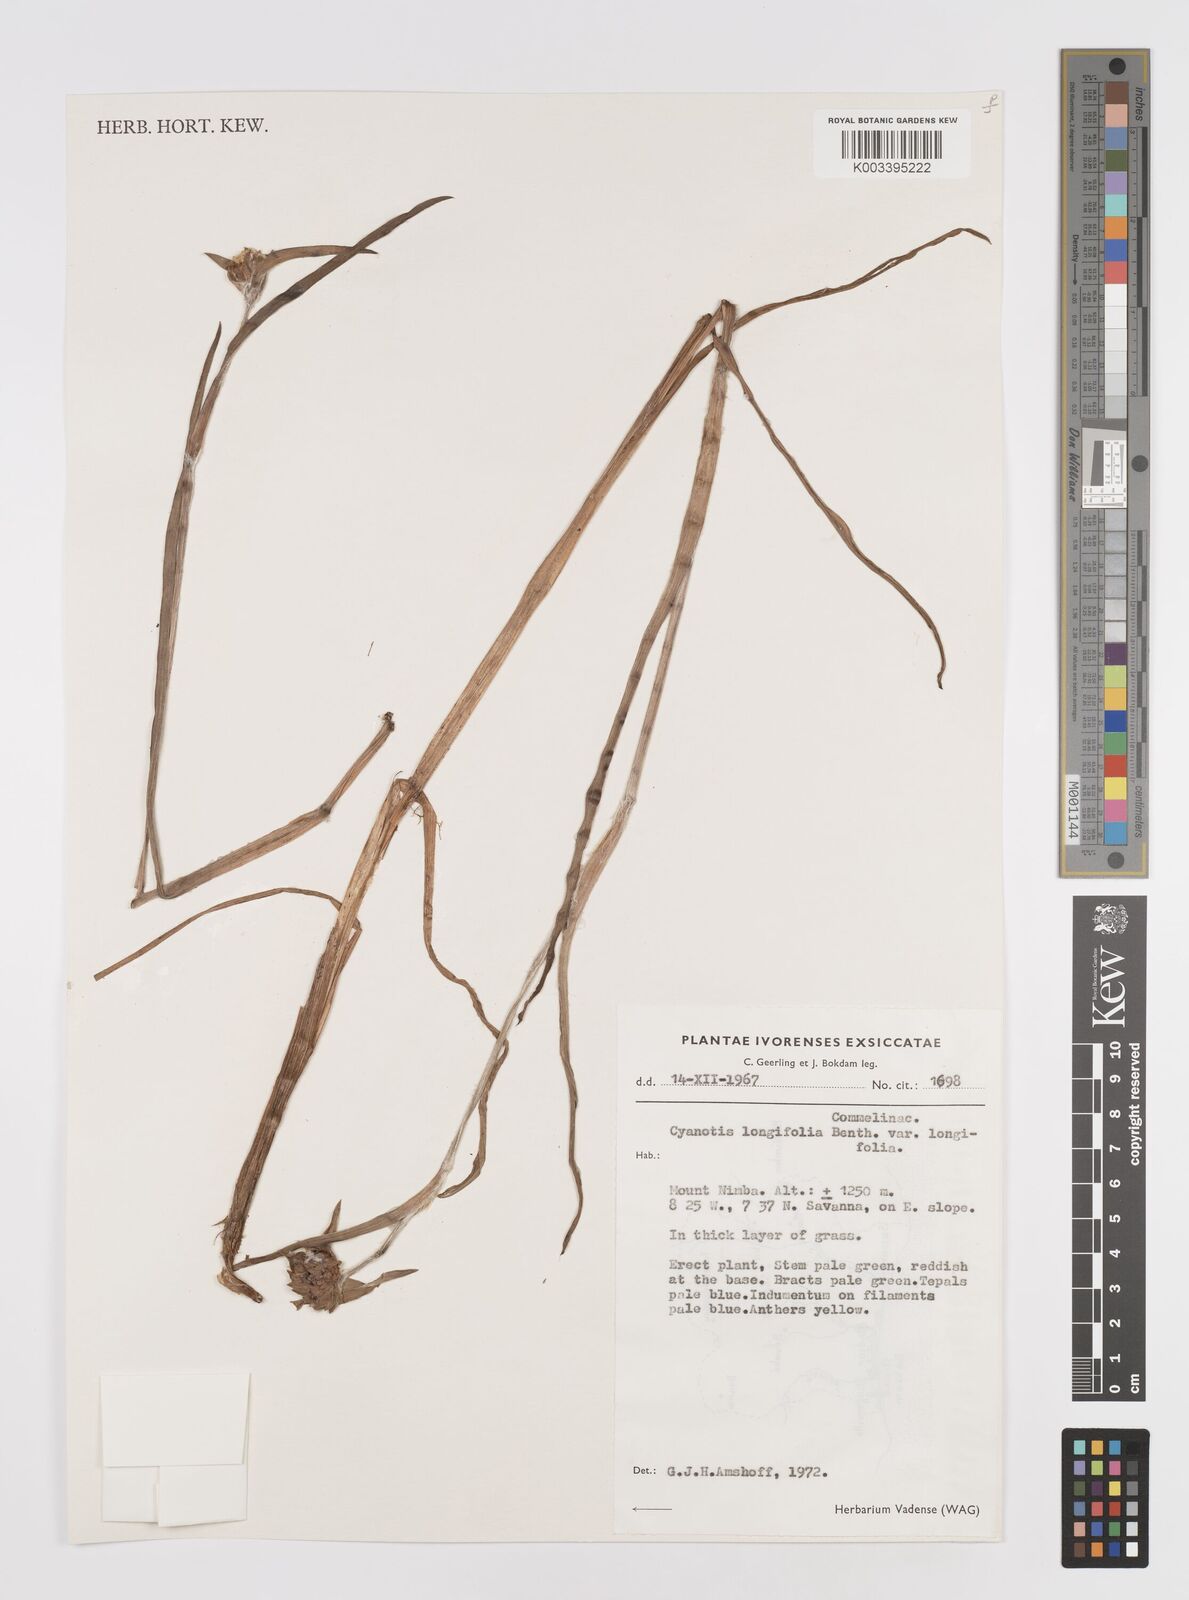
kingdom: Plantae
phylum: Tracheophyta
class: Liliopsida
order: Commelinales
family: Commelinaceae
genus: Cyanotis
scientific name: Cyanotis longifolia
